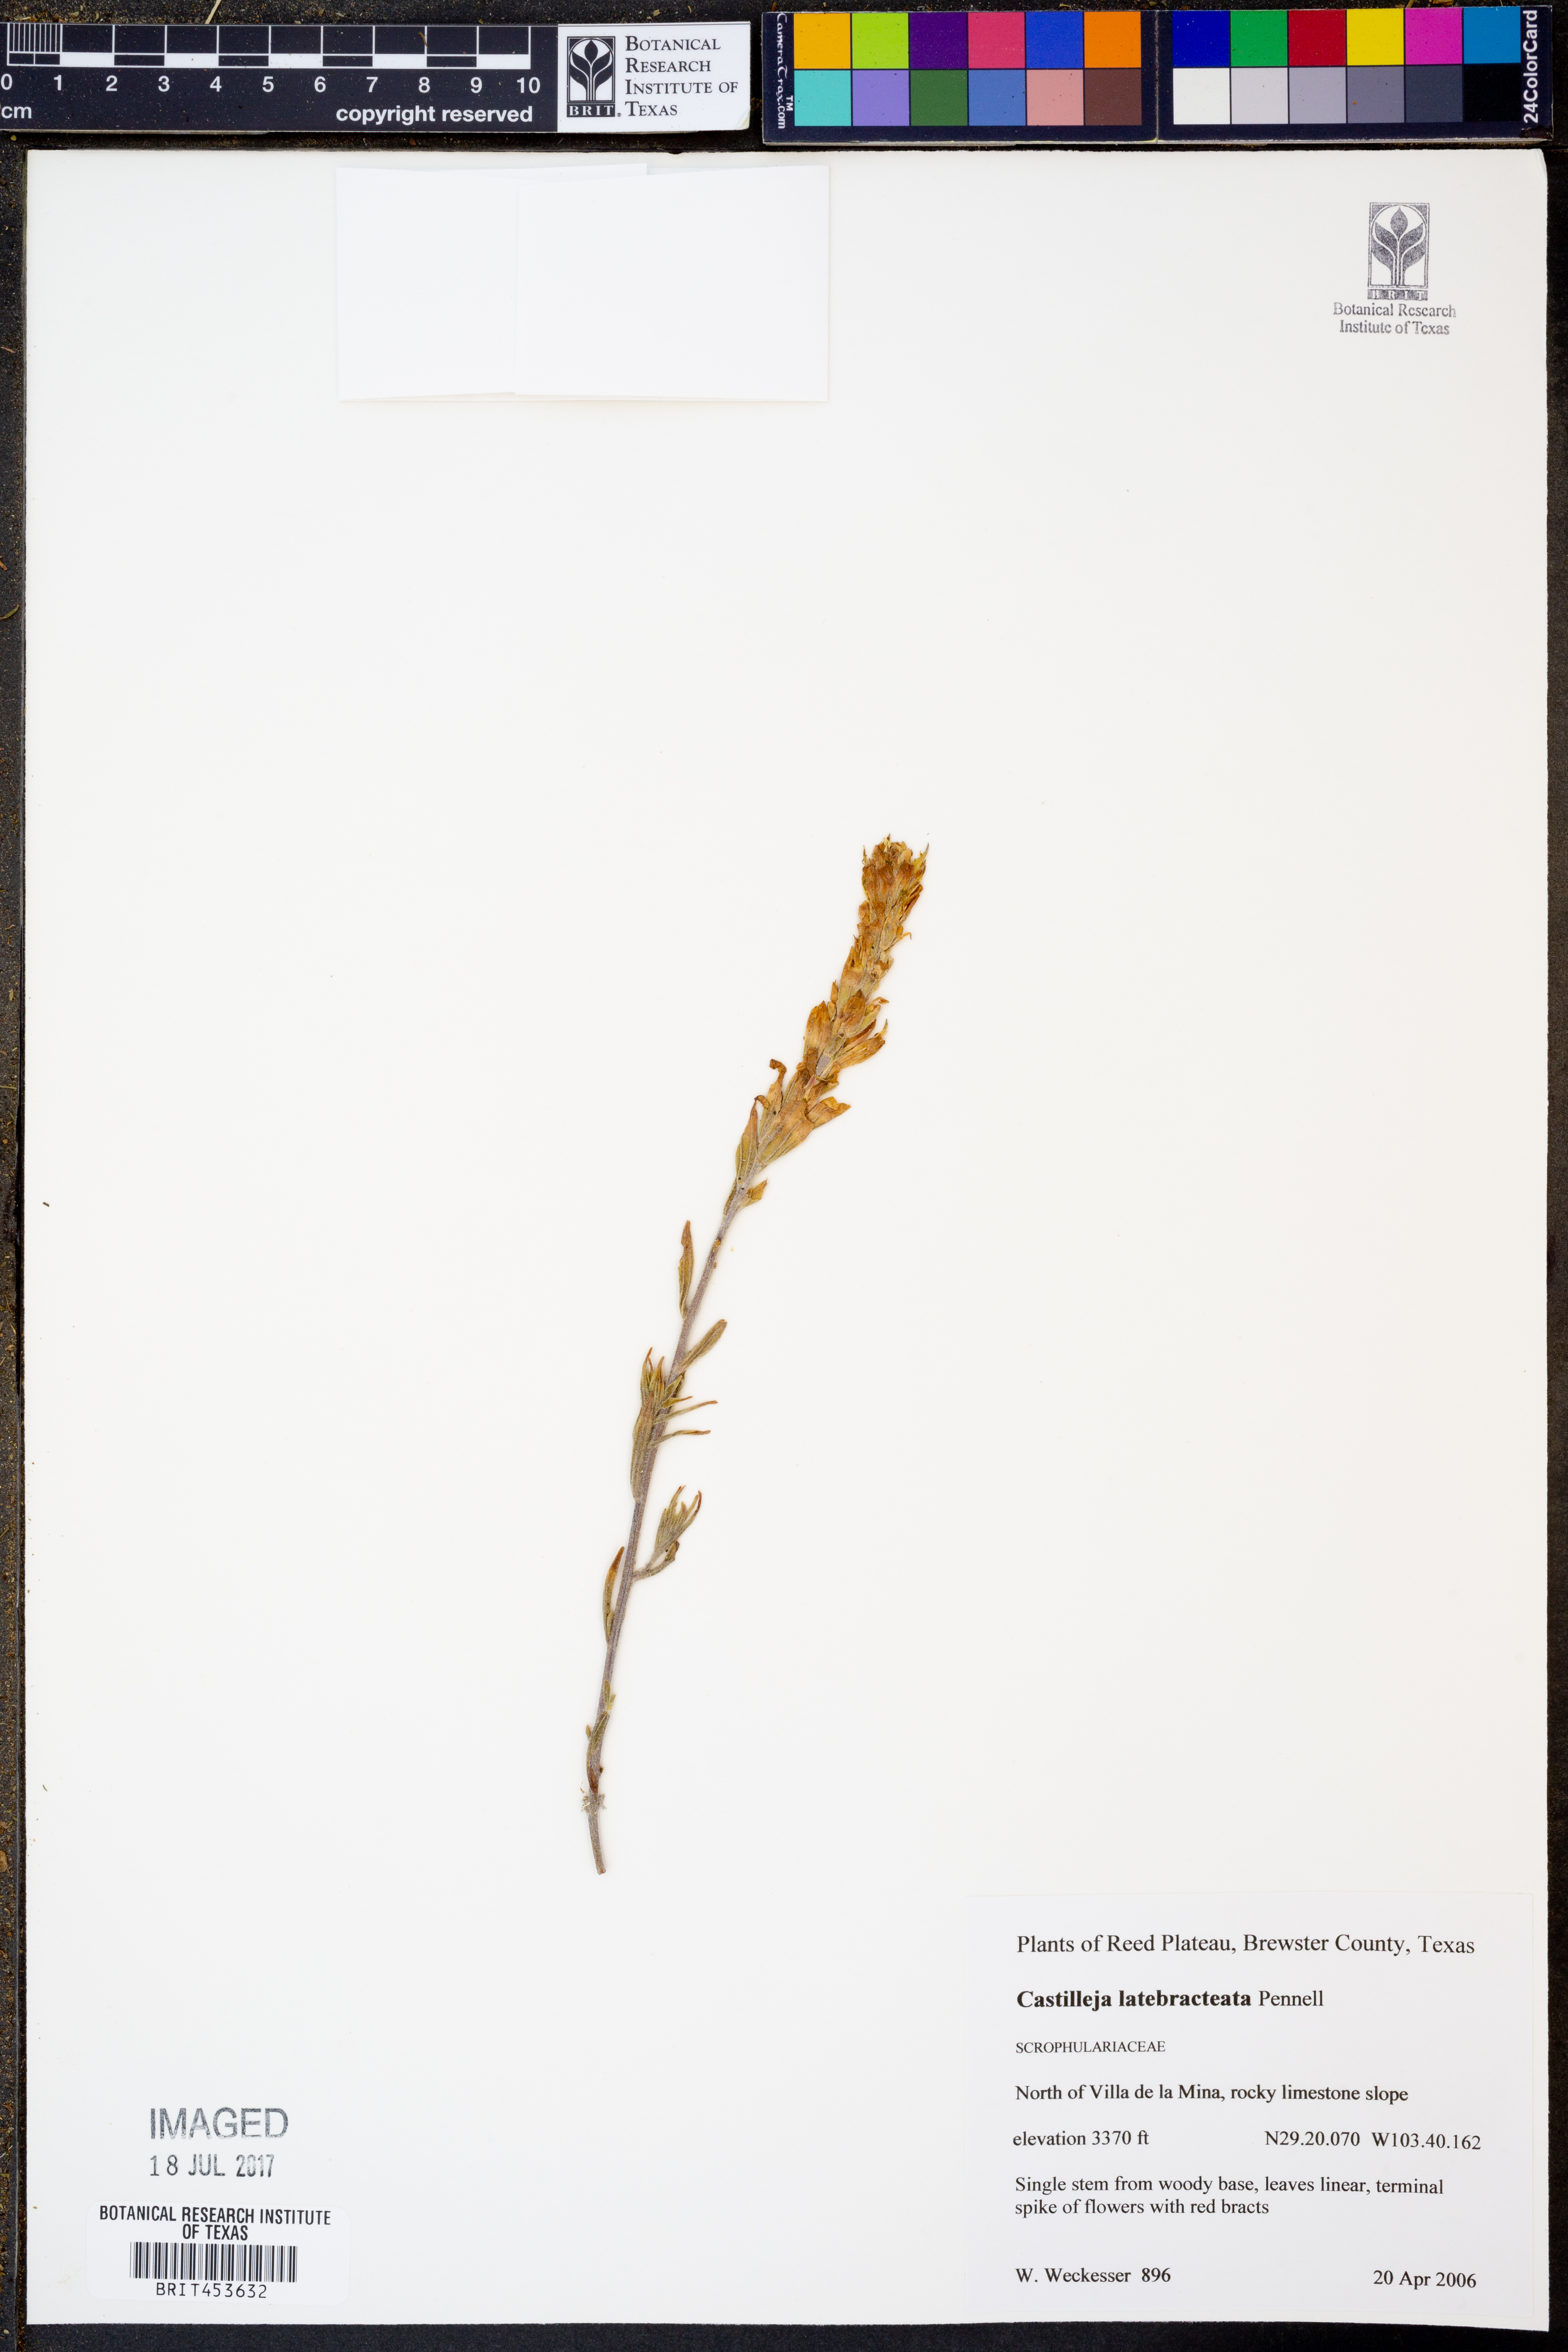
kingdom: Plantae
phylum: Tracheophyta
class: Magnoliopsida
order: Lamiales
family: Orobanchaceae
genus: Castilleja
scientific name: Castilleja rigida
